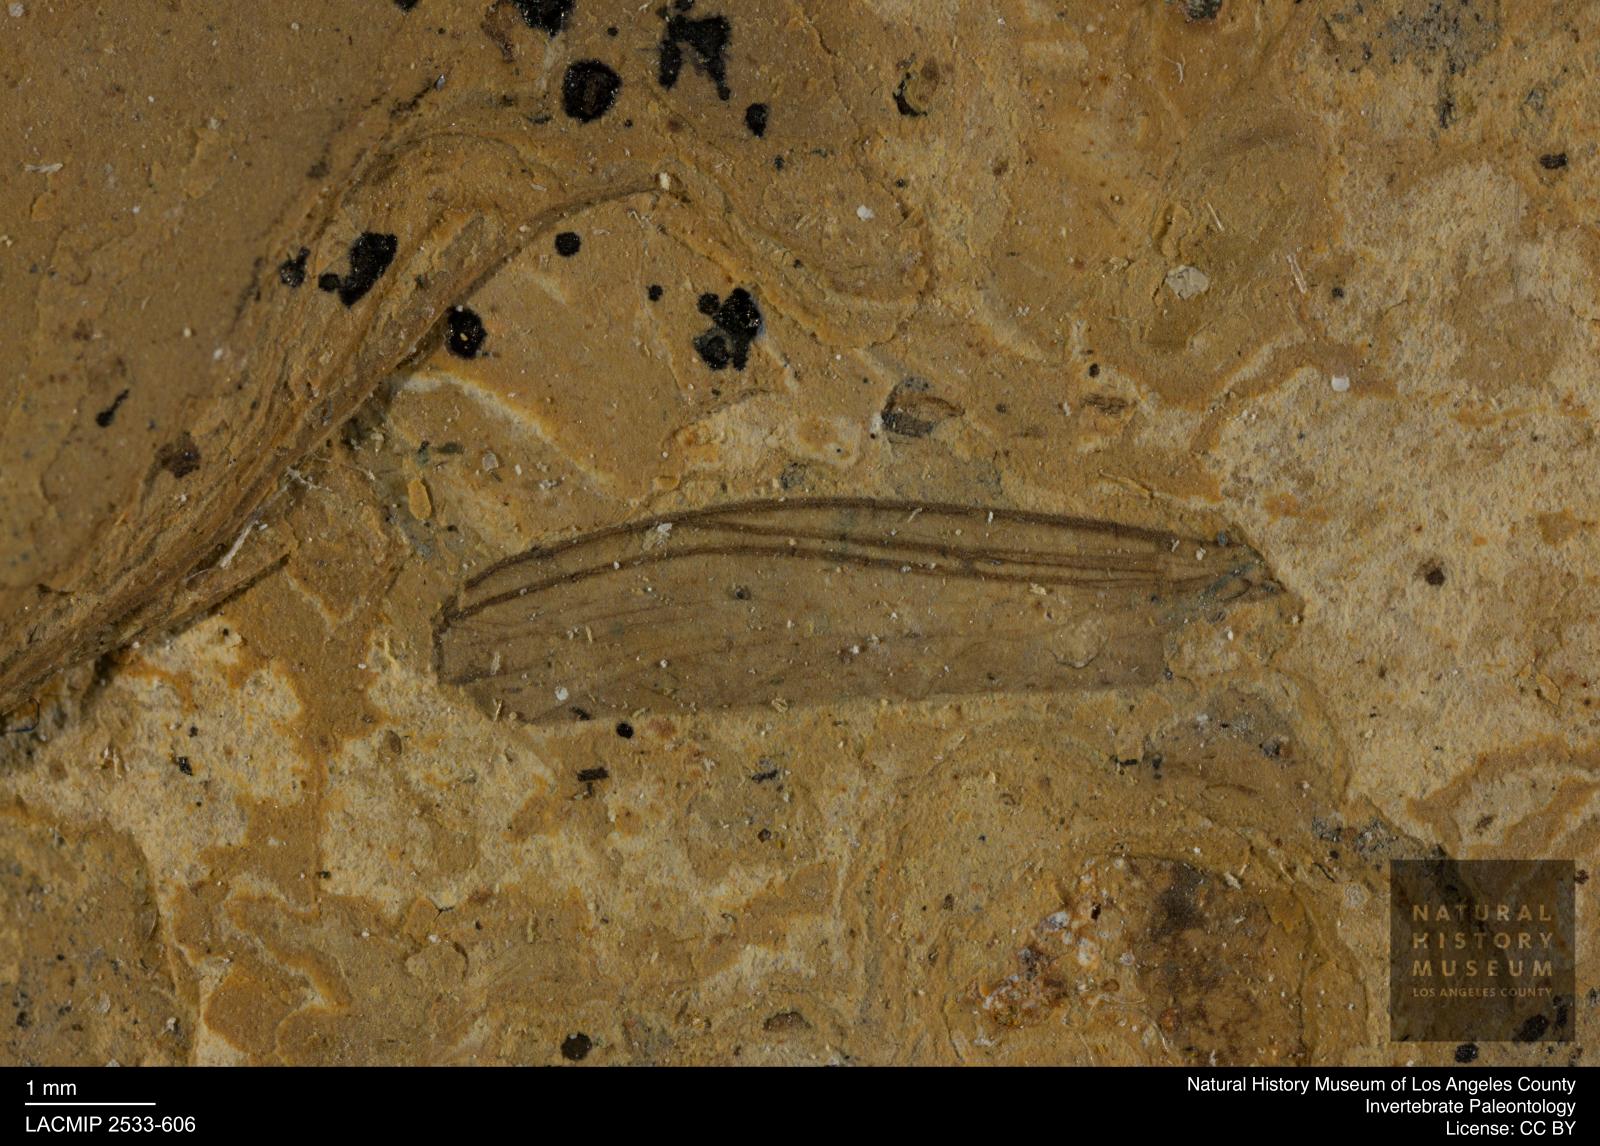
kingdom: Animalia
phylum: Arthropoda
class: Insecta
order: Diptera
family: Sciaridae
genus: Sciara
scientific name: Sciara pennata
